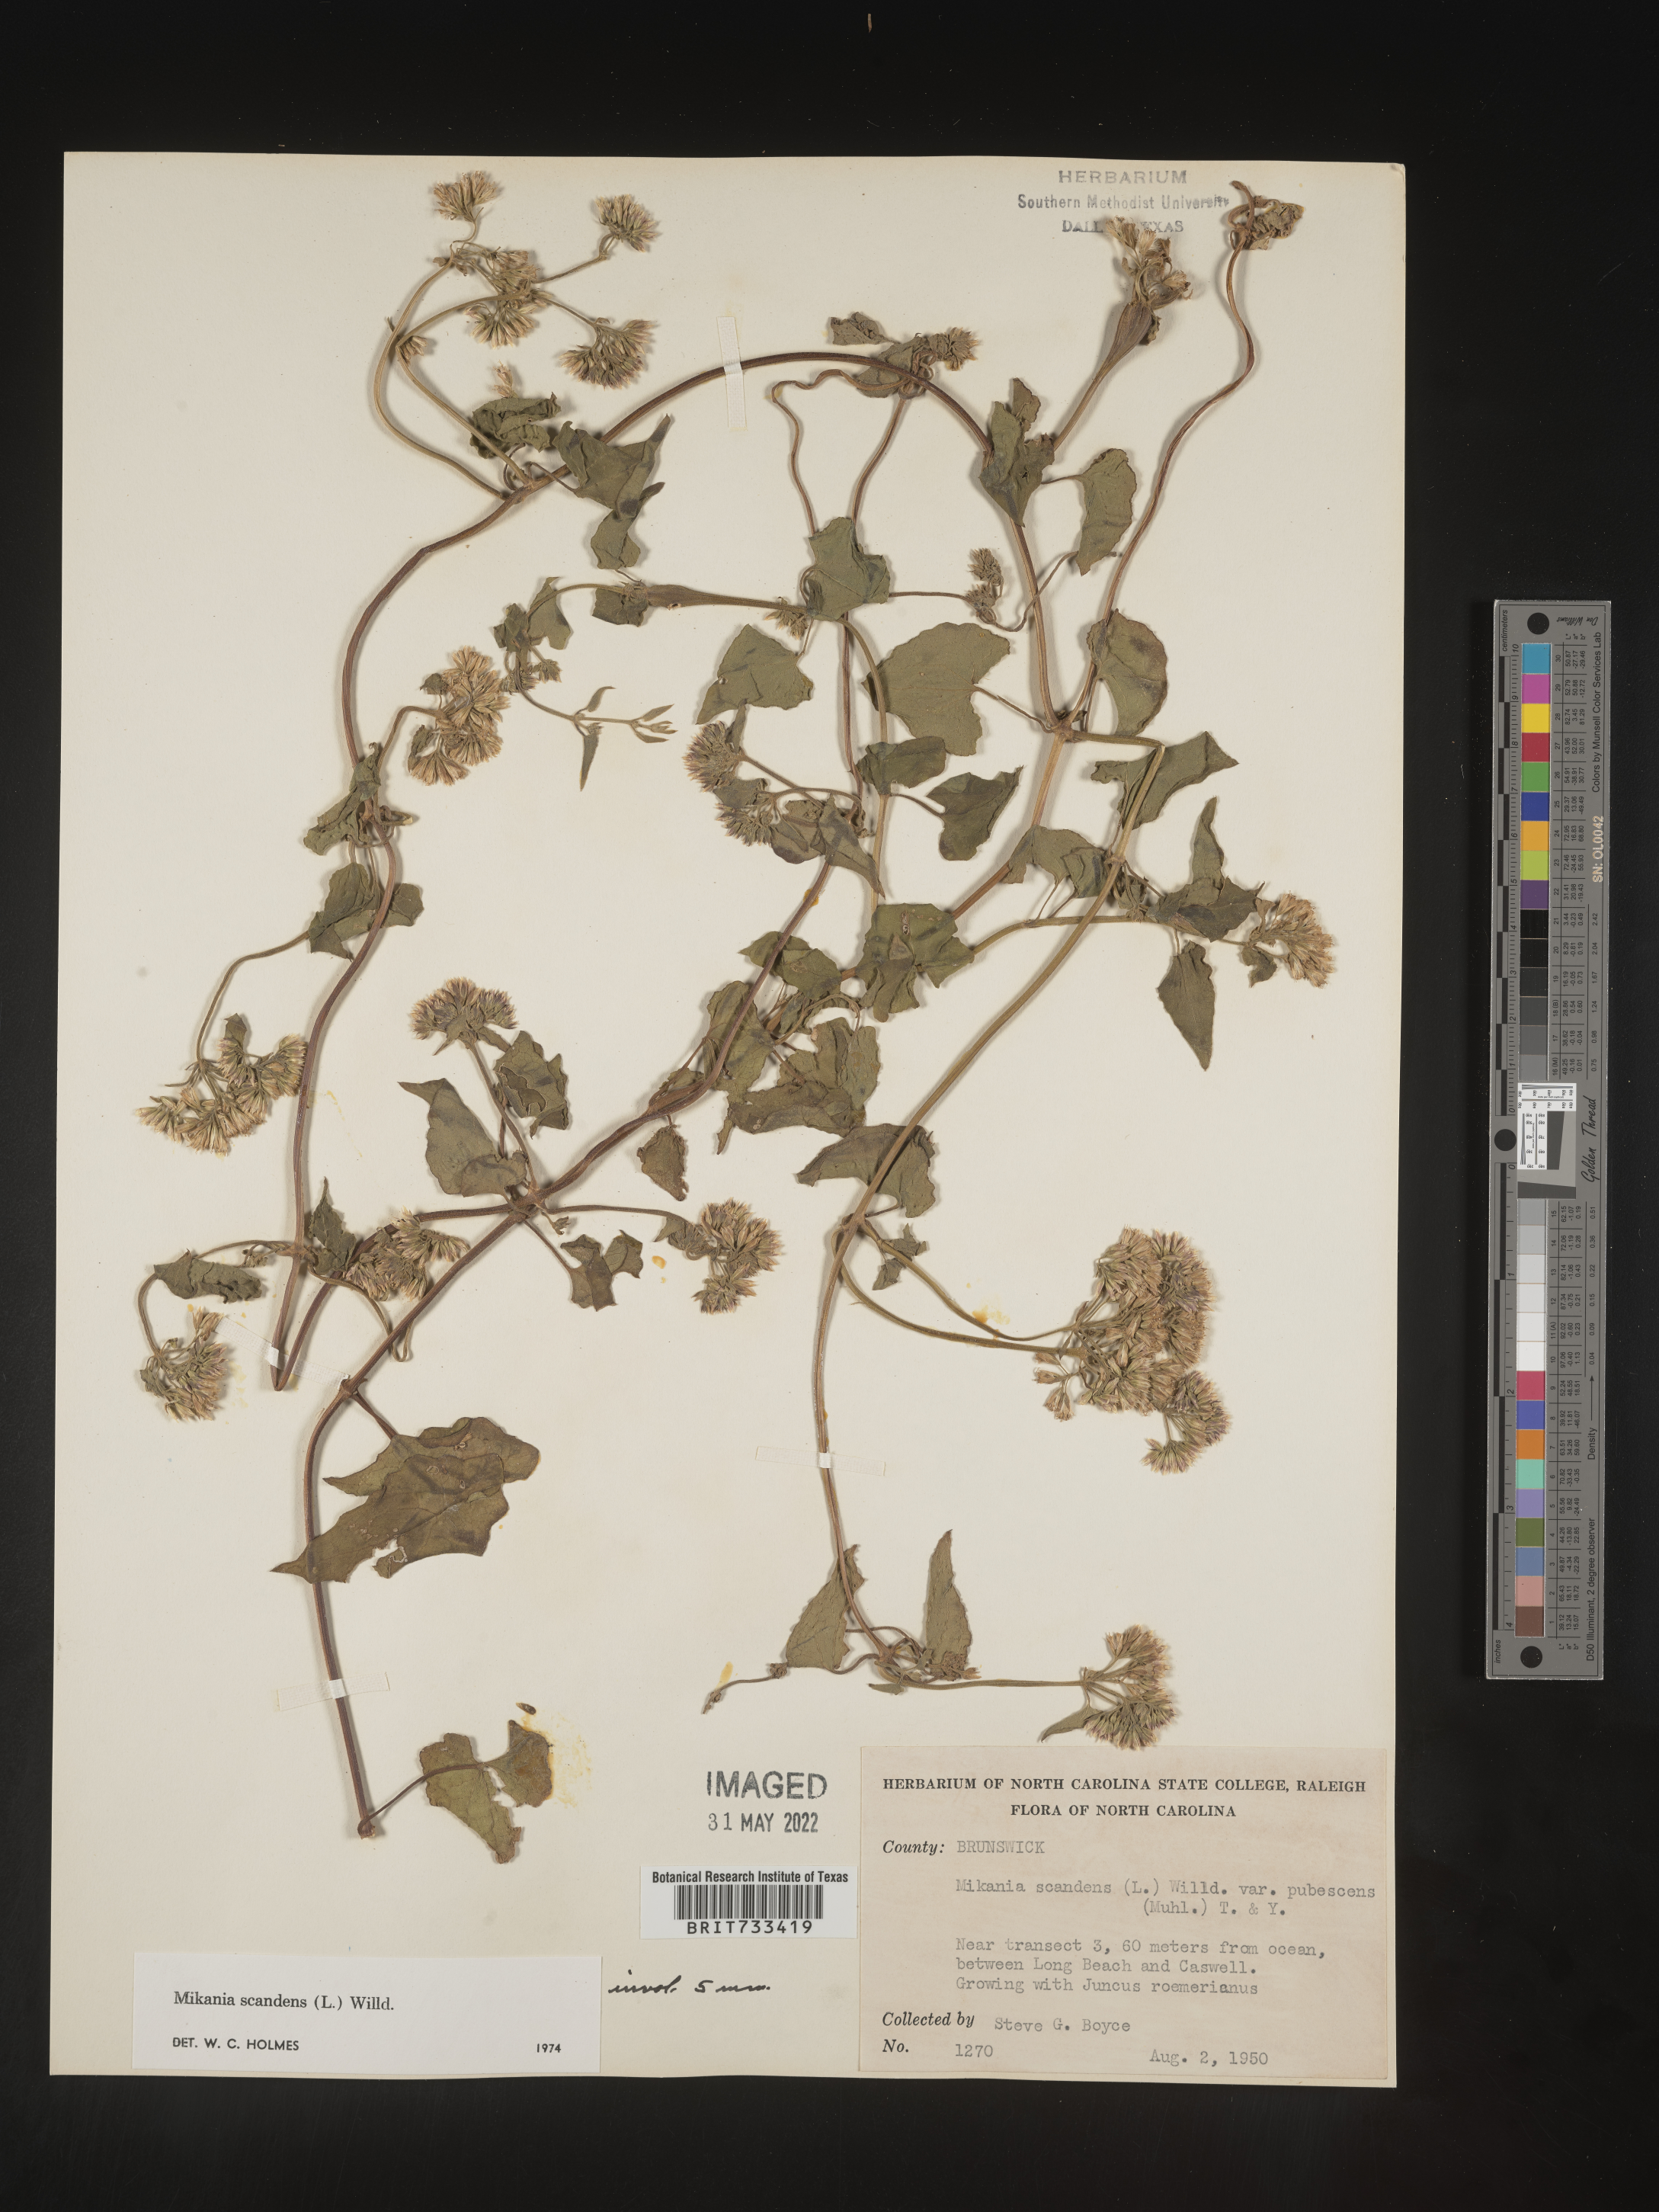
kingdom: Plantae
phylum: Tracheophyta
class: Magnoliopsida
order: Asterales
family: Asteraceae
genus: Mikania
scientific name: Mikania scandens
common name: Climbing hempvine
